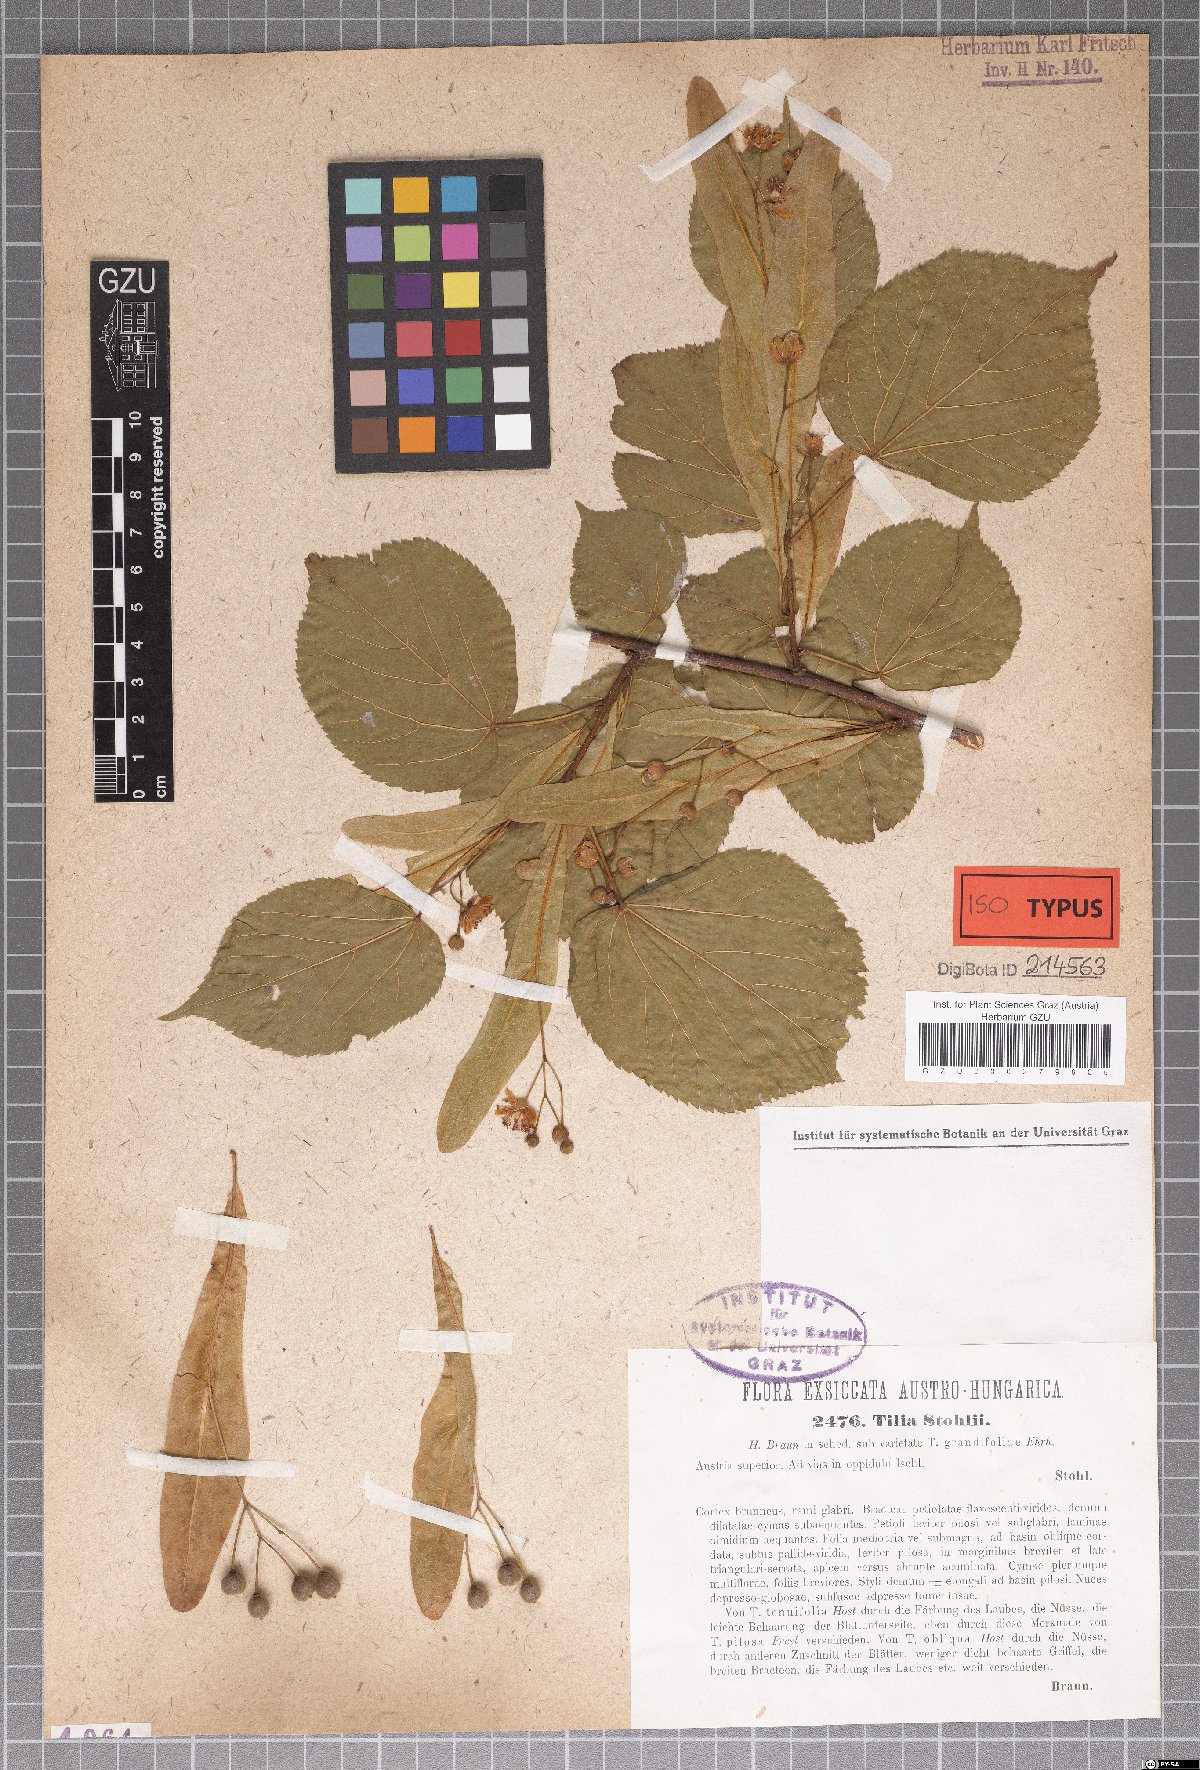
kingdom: Plantae
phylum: Tracheophyta
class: Magnoliopsida
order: Malvales
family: Malvaceae
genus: Tilia
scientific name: Tilia stohlii
